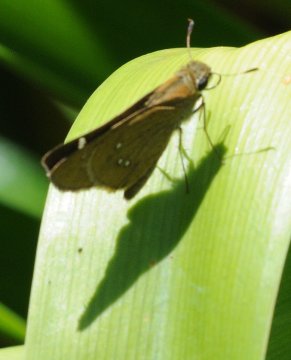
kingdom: Animalia
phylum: Arthropoda
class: Insecta
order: Lepidoptera
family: Hesperiidae
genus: Borbo
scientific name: Borbo borbonica
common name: Zeller's Skipper
